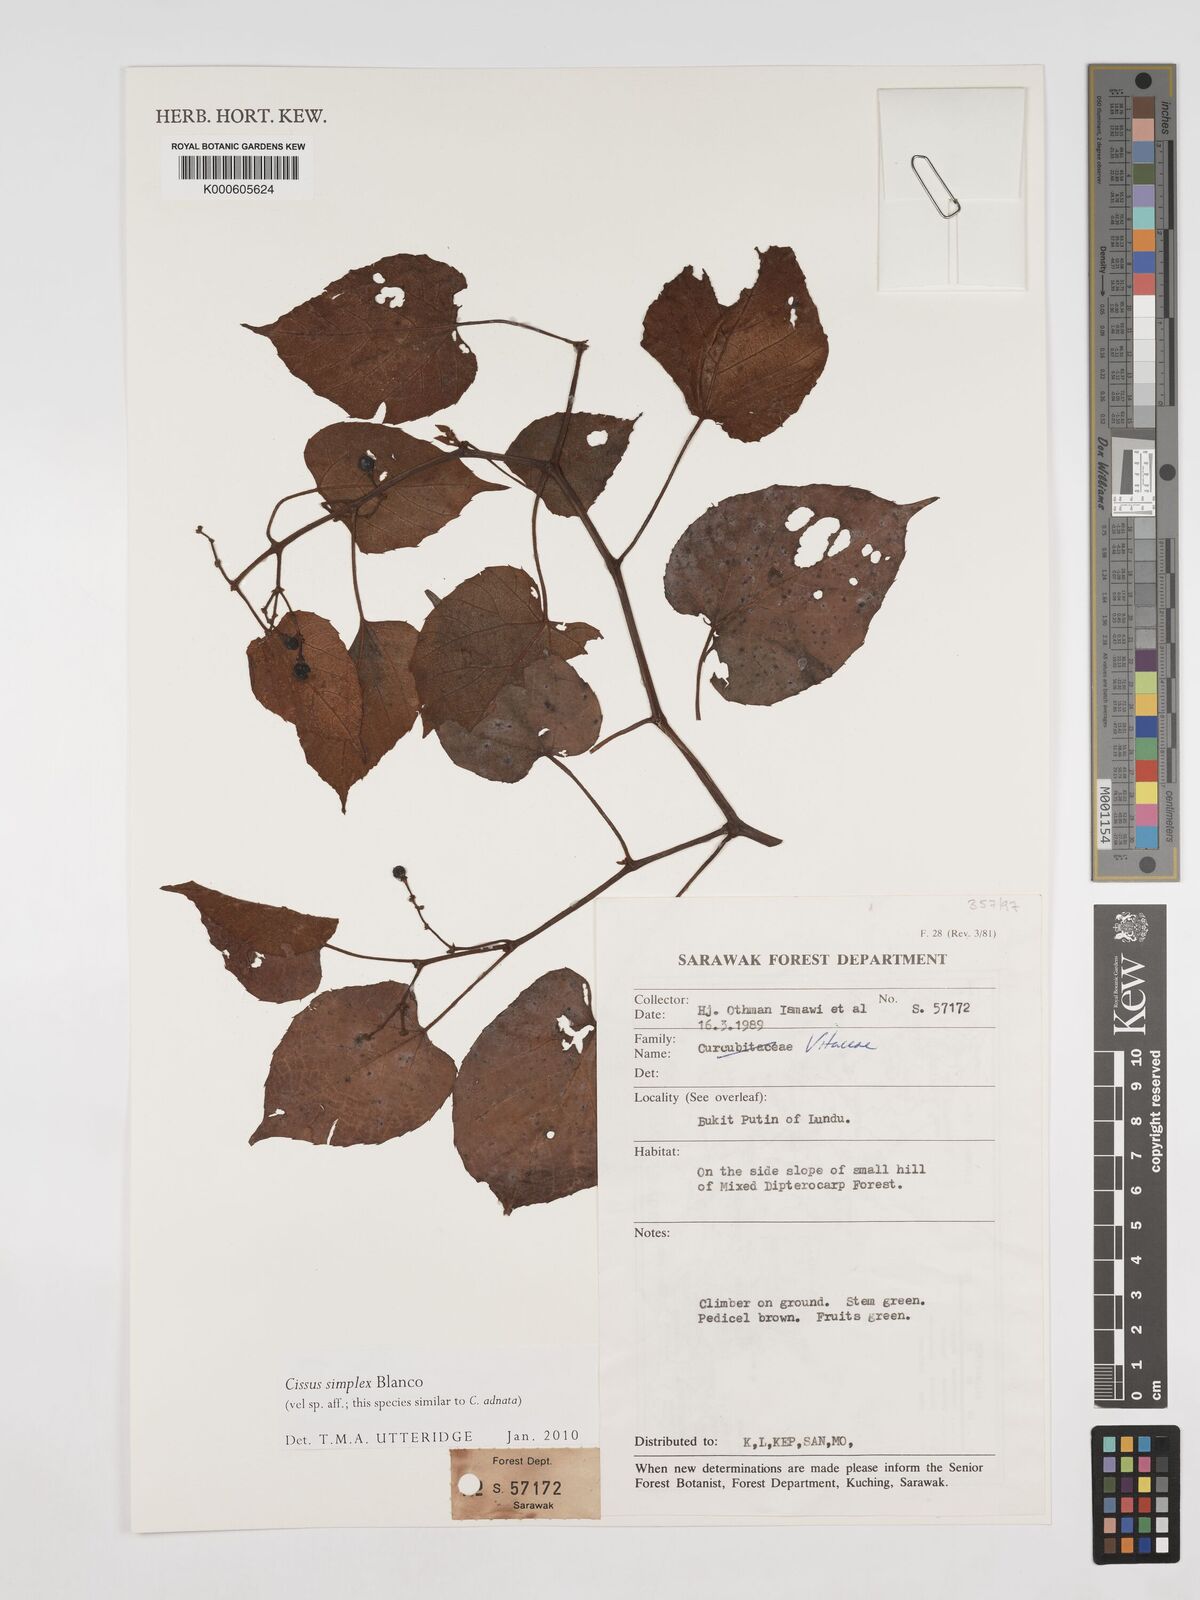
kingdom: Plantae
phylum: Tracheophyta
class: Magnoliopsida
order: Vitales
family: Vitaceae
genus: Cissus
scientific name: Cissus aristata
